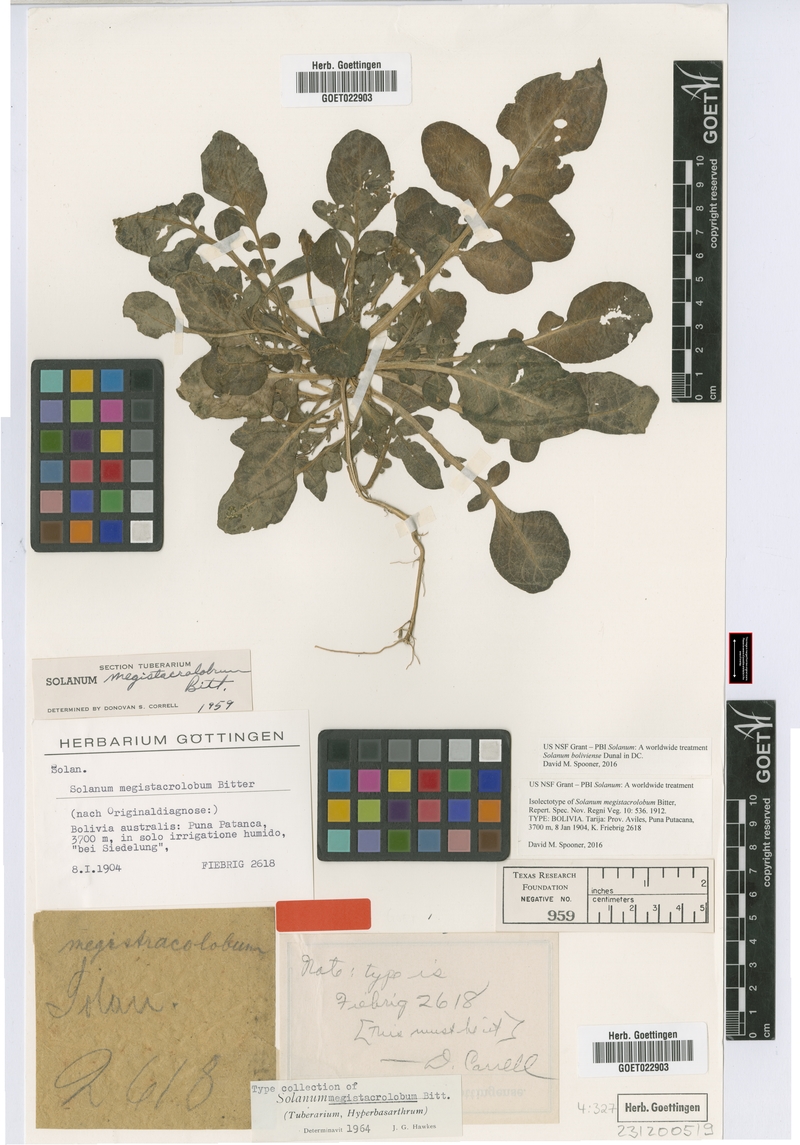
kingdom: Plantae
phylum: Tracheophyta
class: Magnoliopsida
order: Solanales
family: Solanaceae
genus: Solanum
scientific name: Solanum boliviense
